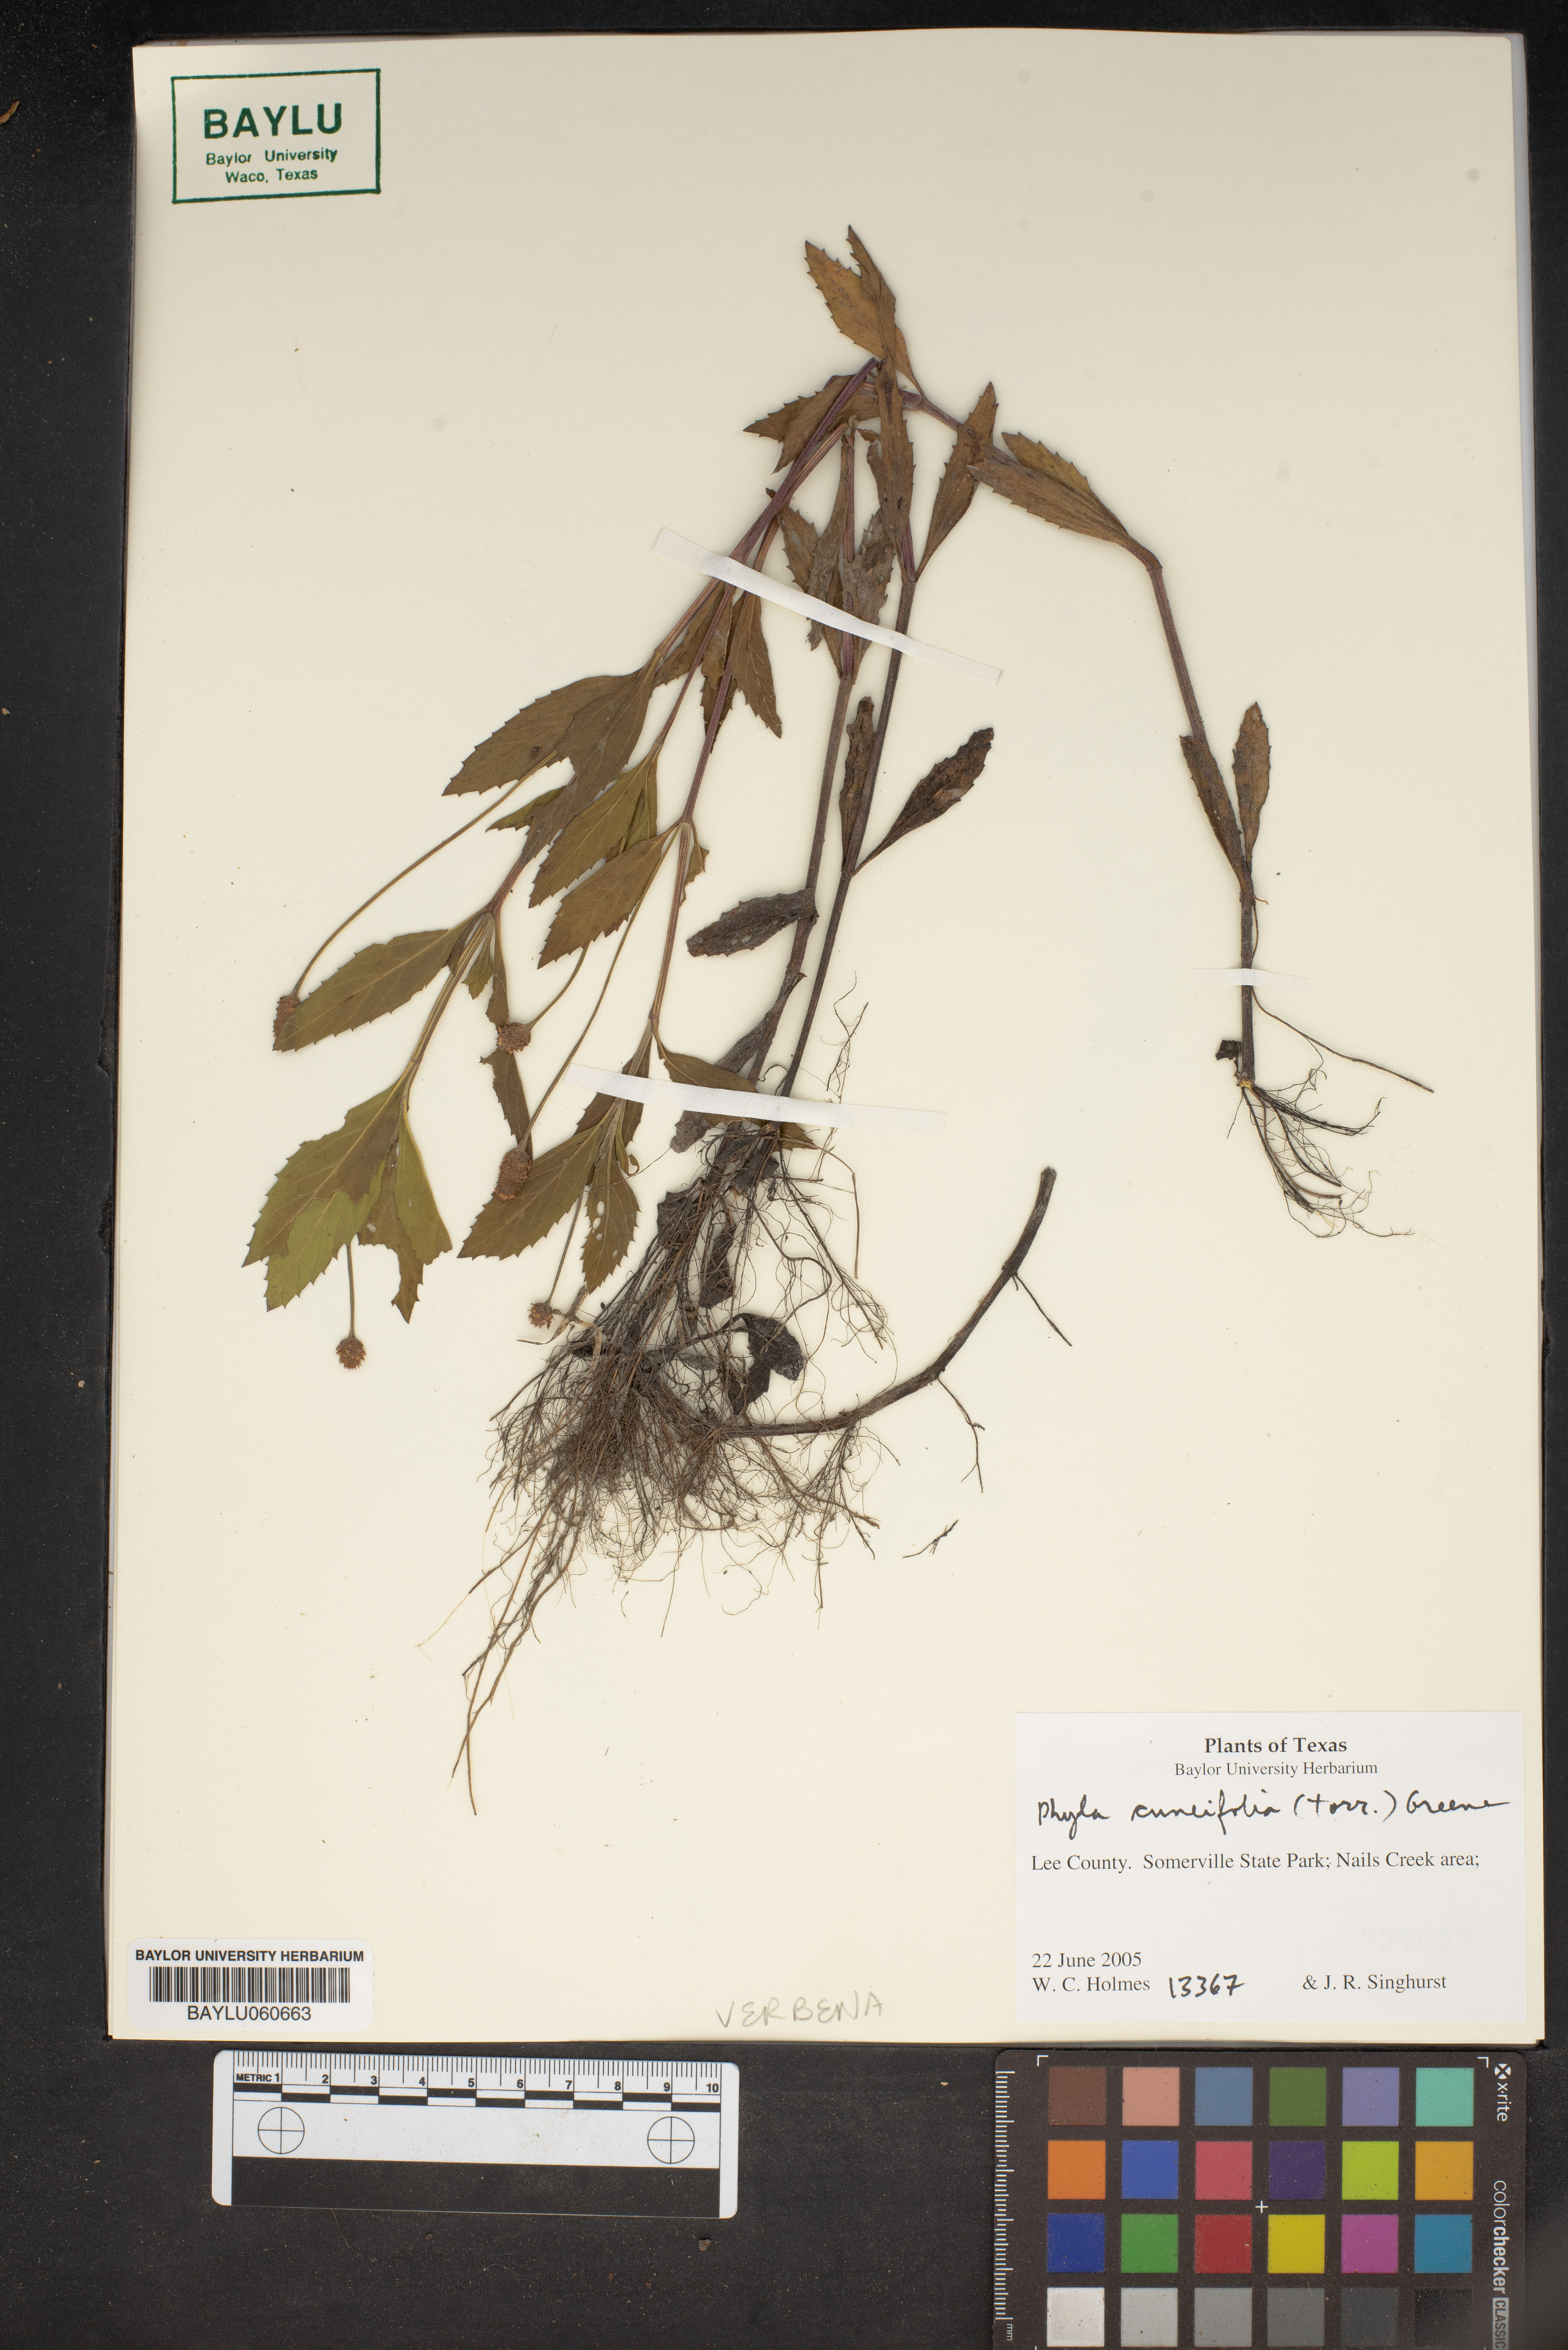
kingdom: Plantae
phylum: Tracheophyta
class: Magnoliopsida
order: Lamiales
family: Verbenaceae
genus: Phyla
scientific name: Phyla cuneifolia
